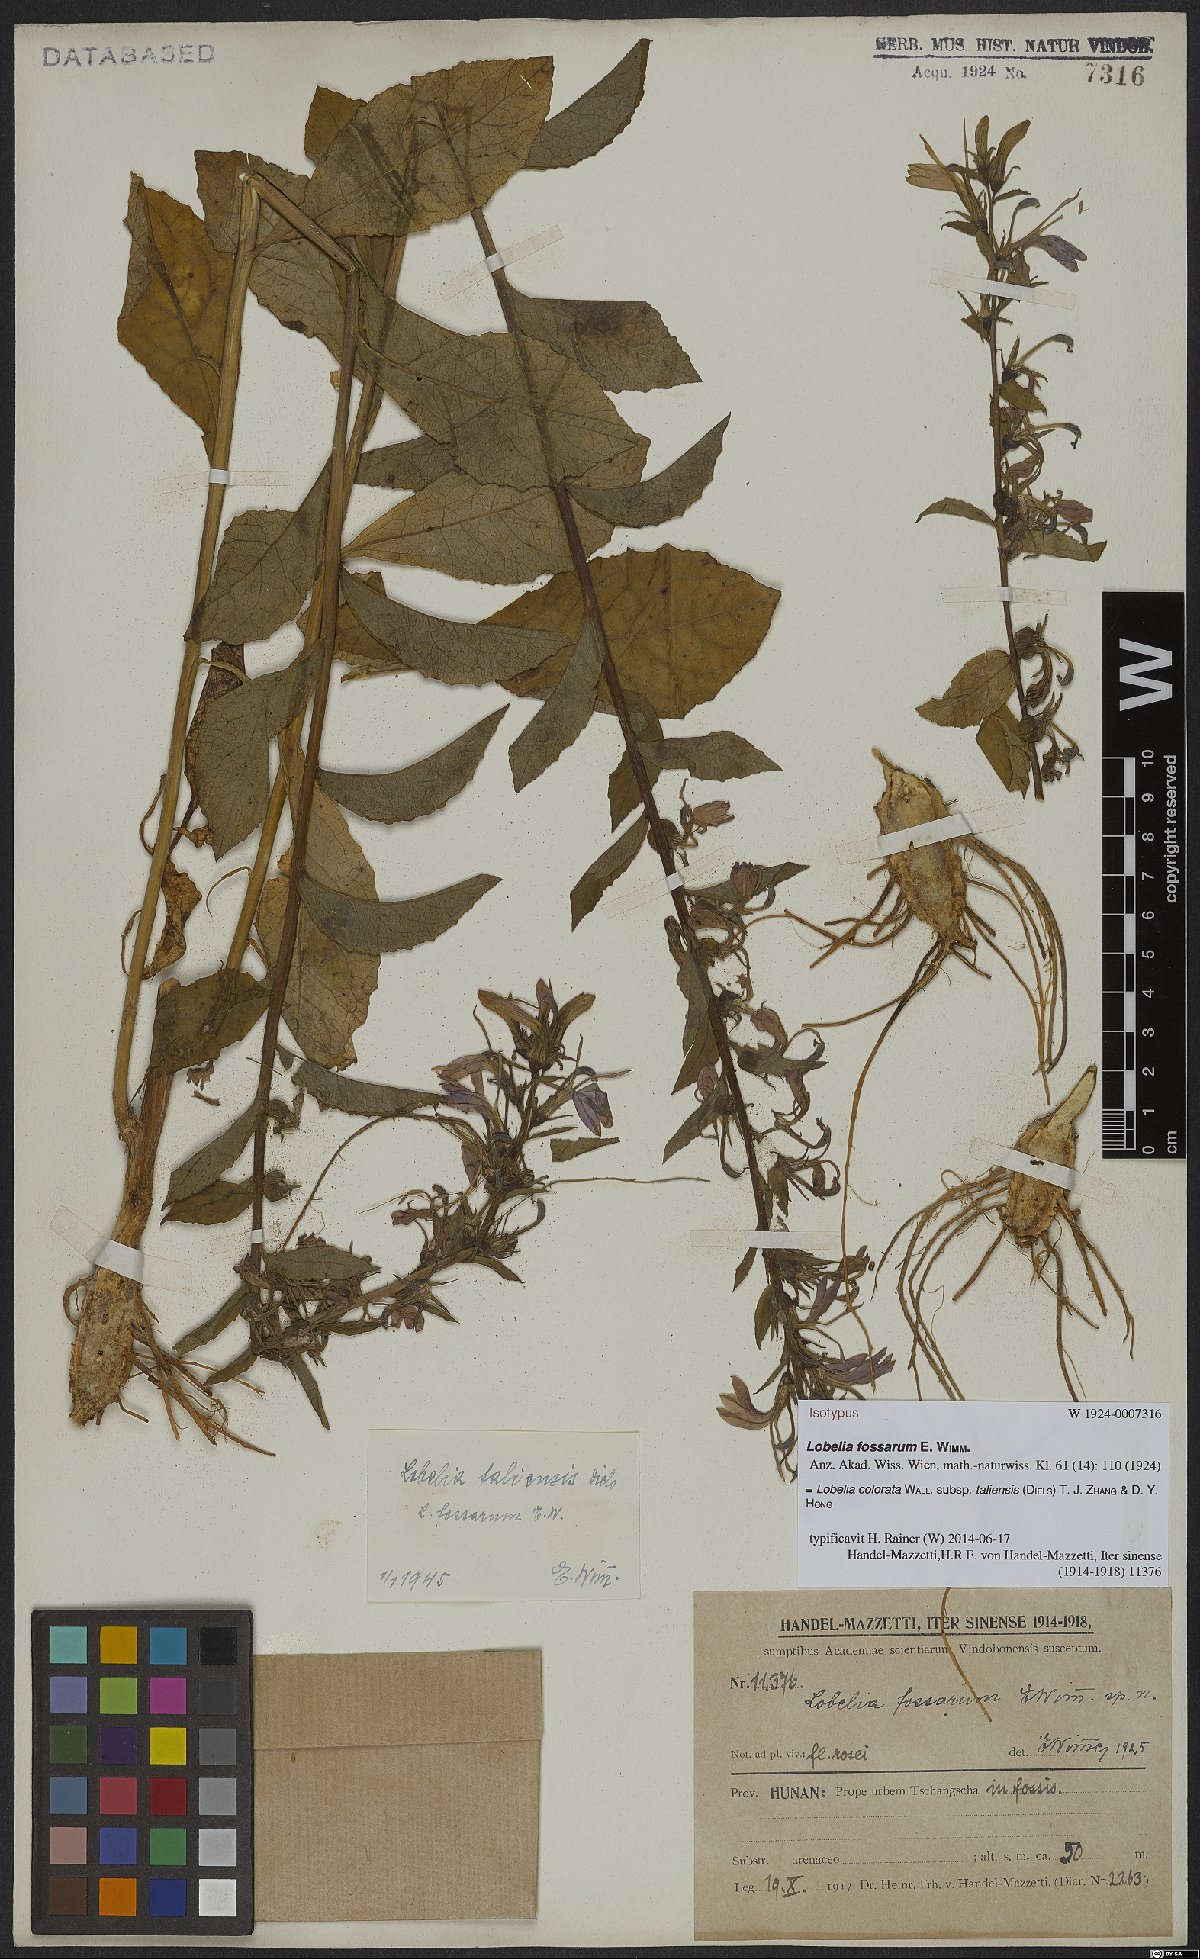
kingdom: Plantae
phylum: Tracheophyta
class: Magnoliopsida
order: Asterales
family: Campanulaceae
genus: Lobelia
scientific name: Lobelia taliensis
